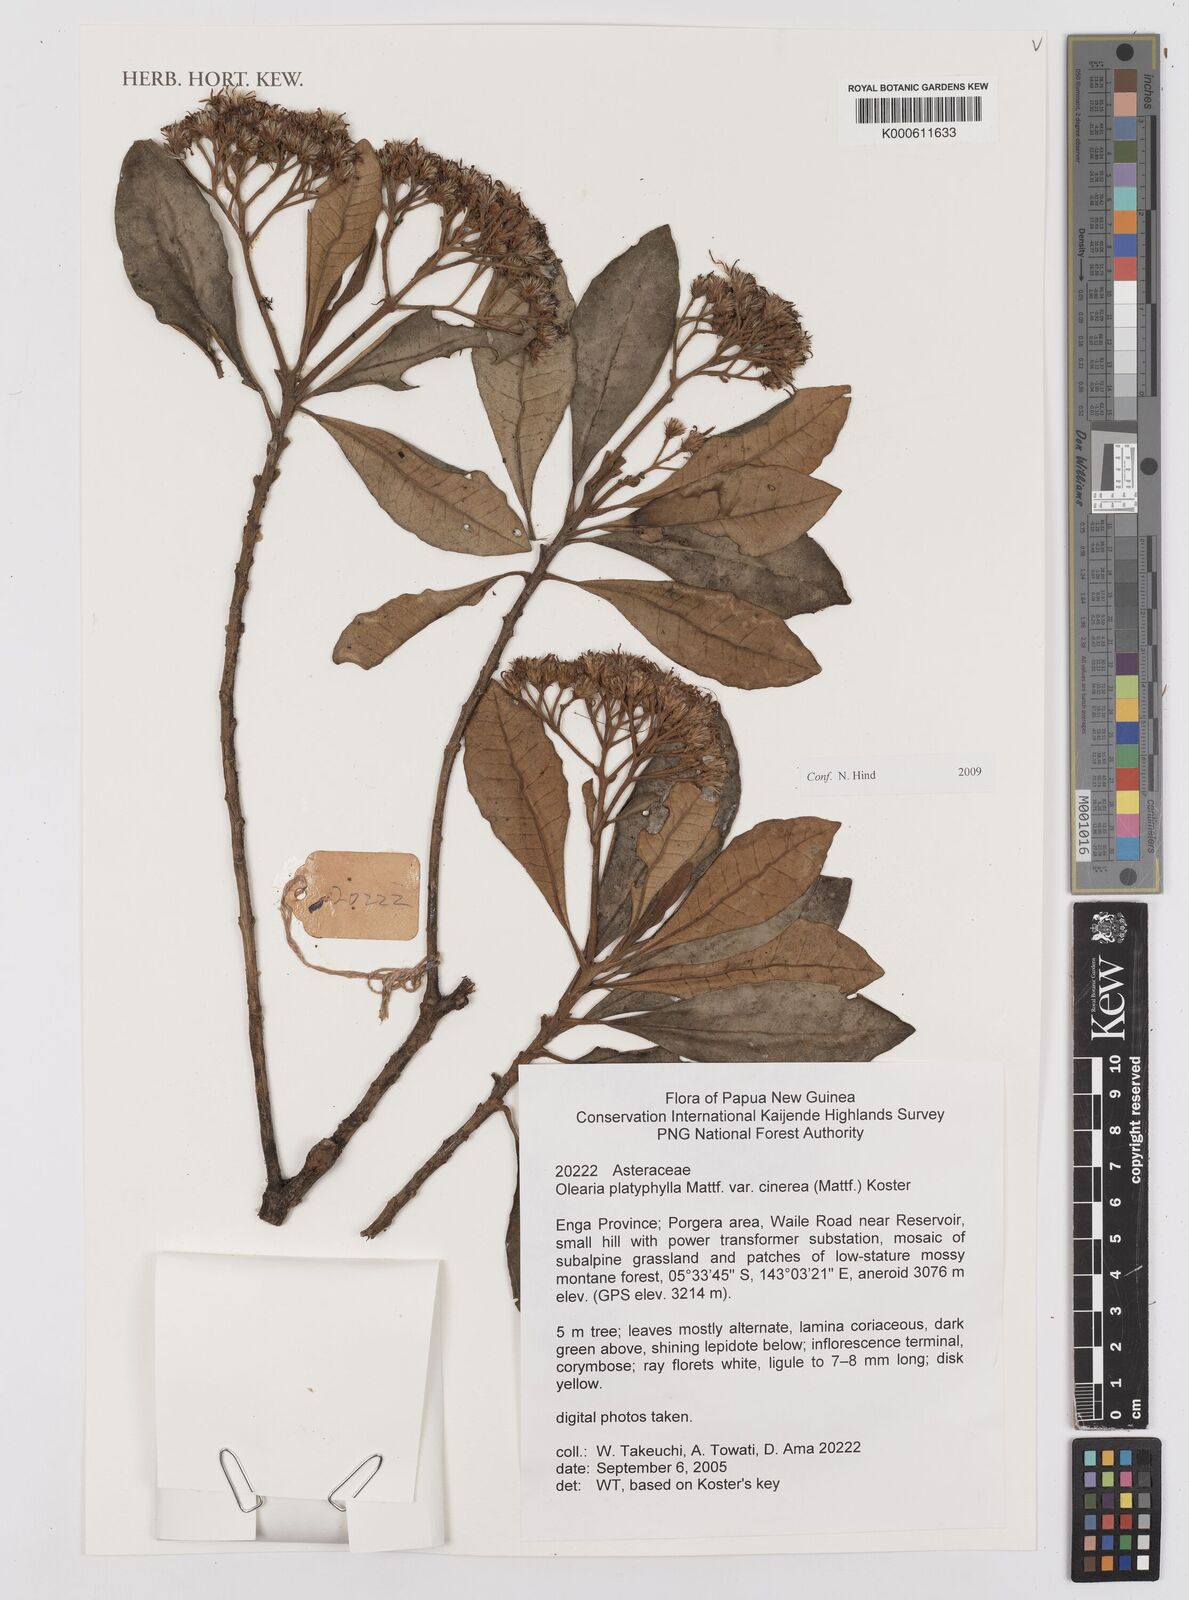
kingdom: Plantae
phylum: Tracheophyta
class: Magnoliopsida
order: Asterales
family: Asteraceae
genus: Olearia
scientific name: Olearia platyphylla
